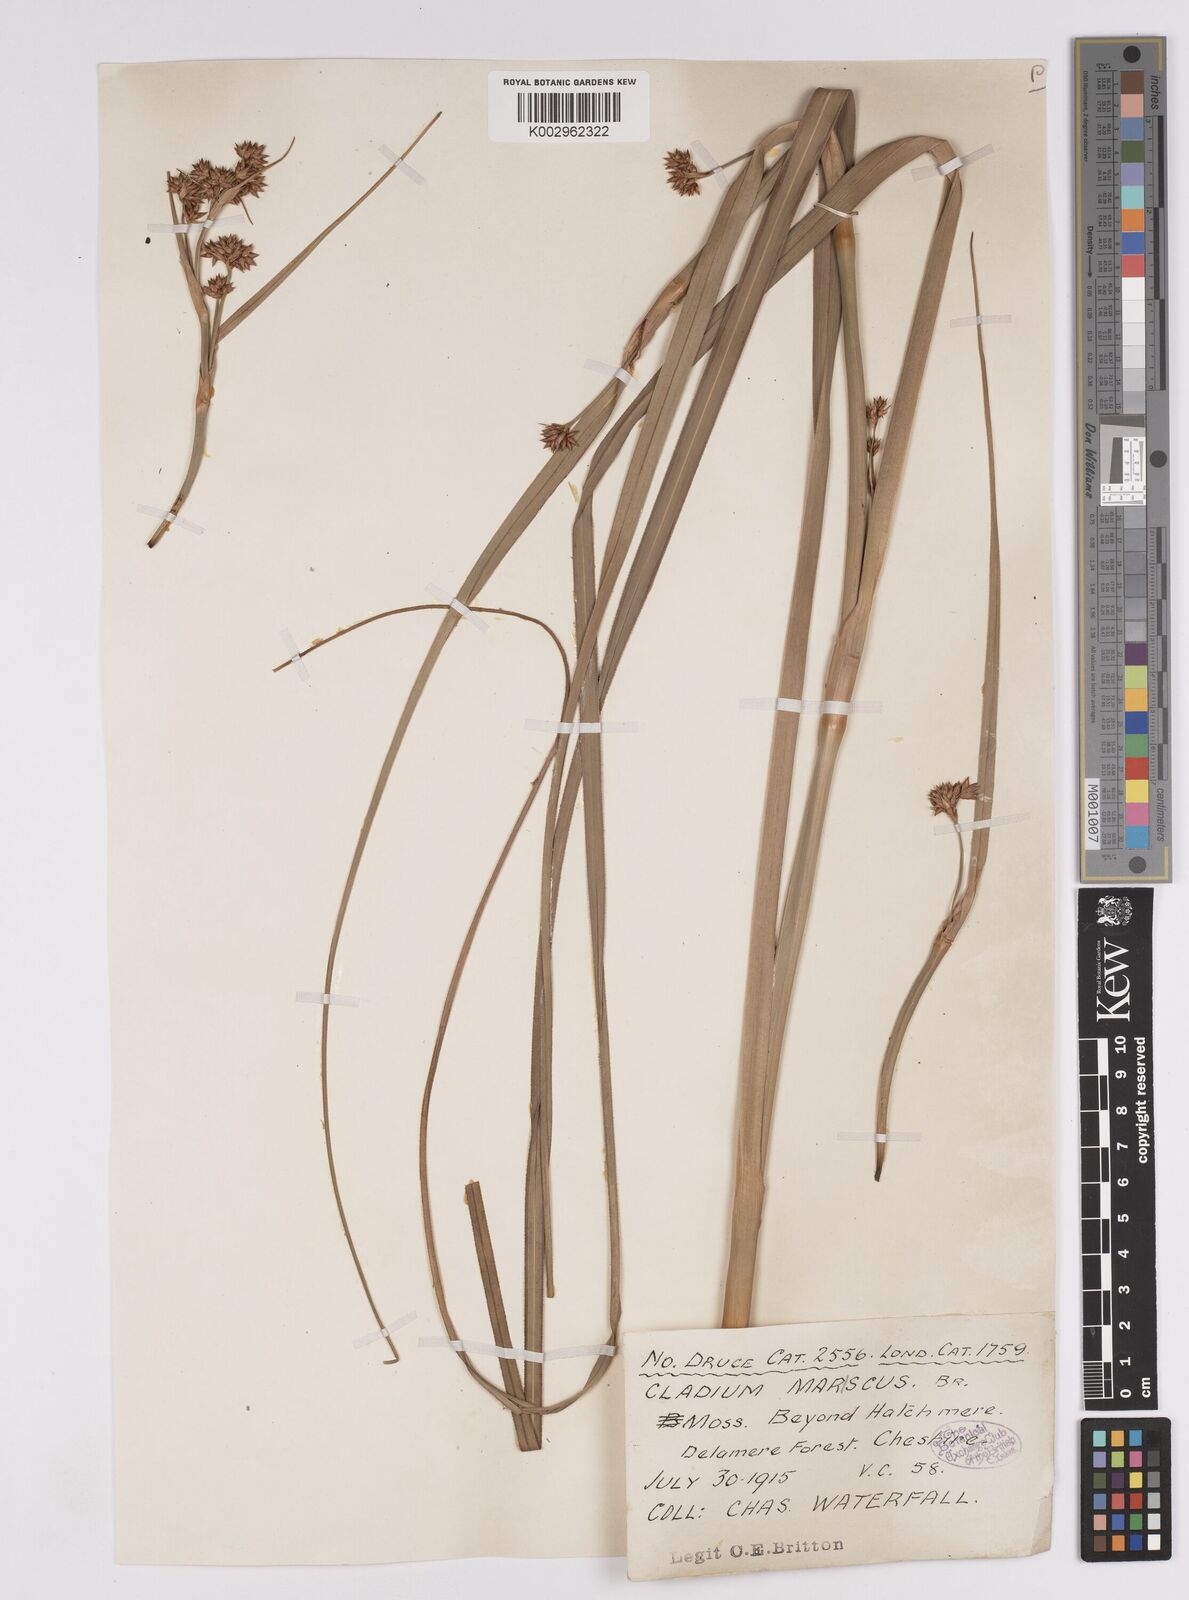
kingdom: Plantae
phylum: Tracheophyta
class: Liliopsida
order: Poales
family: Cyperaceae
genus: Cladium
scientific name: Cladium mariscus
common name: Great fen-sedge
